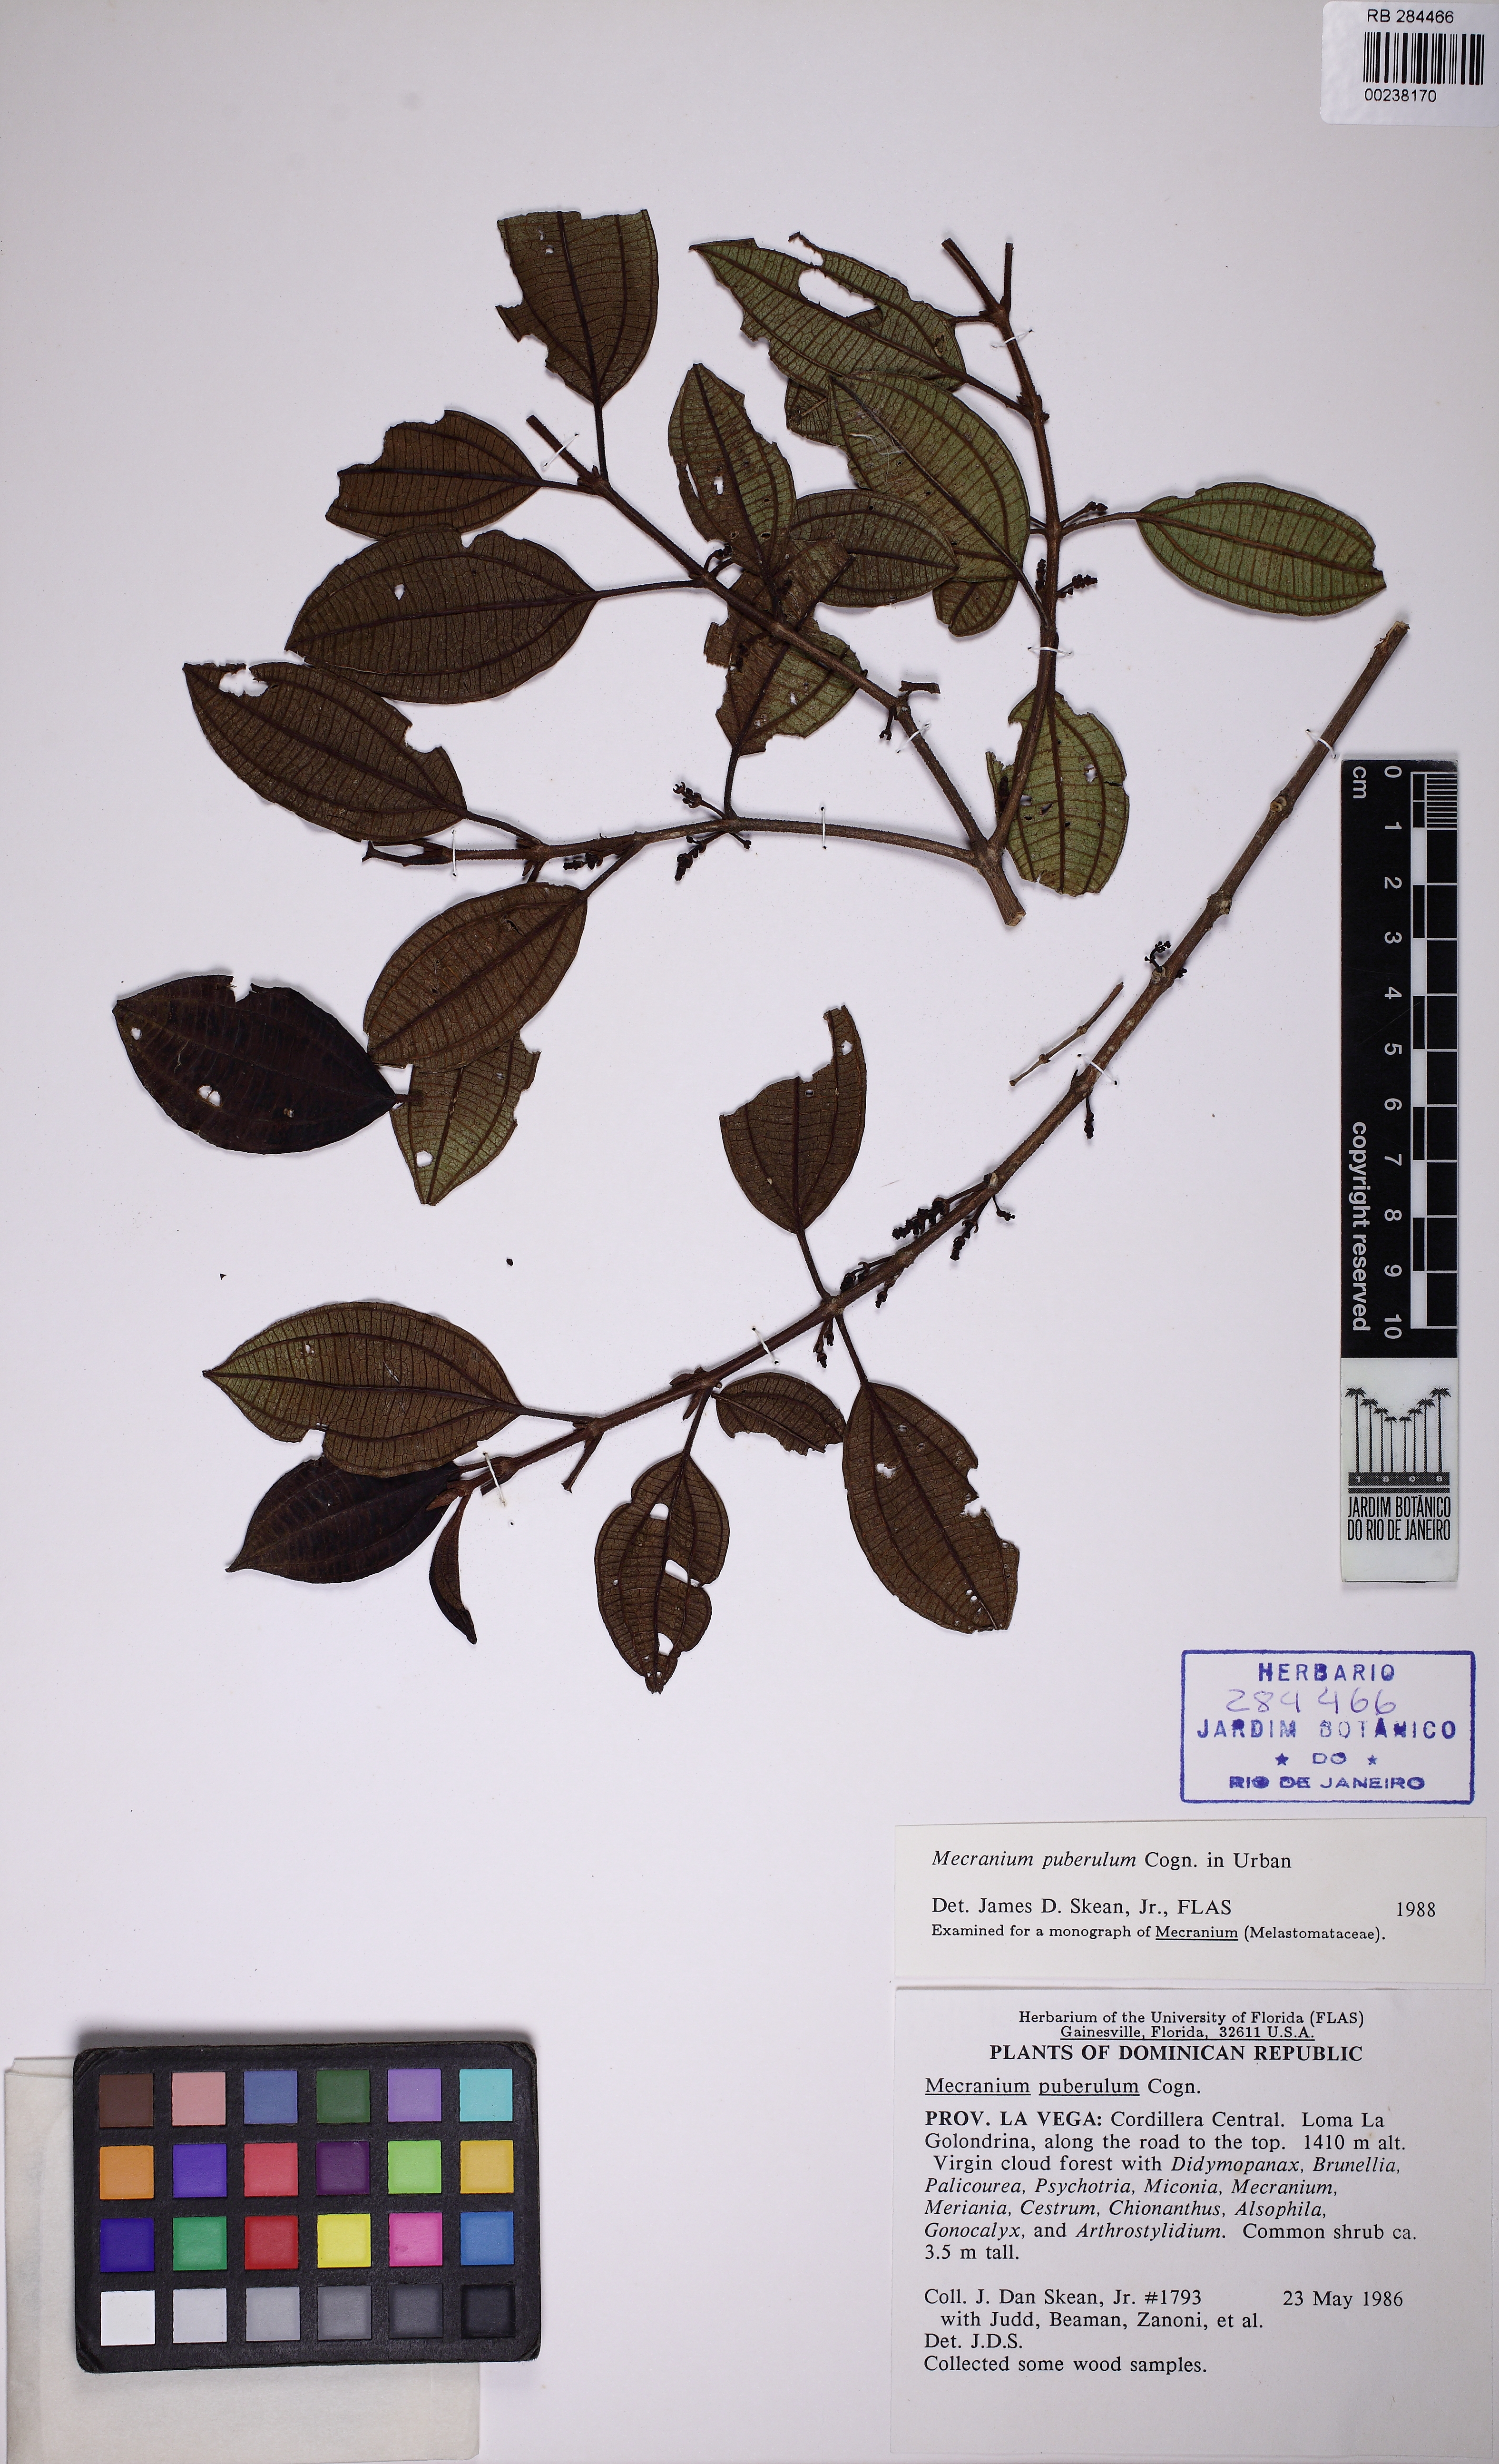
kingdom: Plantae
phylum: Tracheophyta
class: Magnoliopsida
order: Myrtales
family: Melastomataceae
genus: Miconia
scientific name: Miconia hirticaulis
